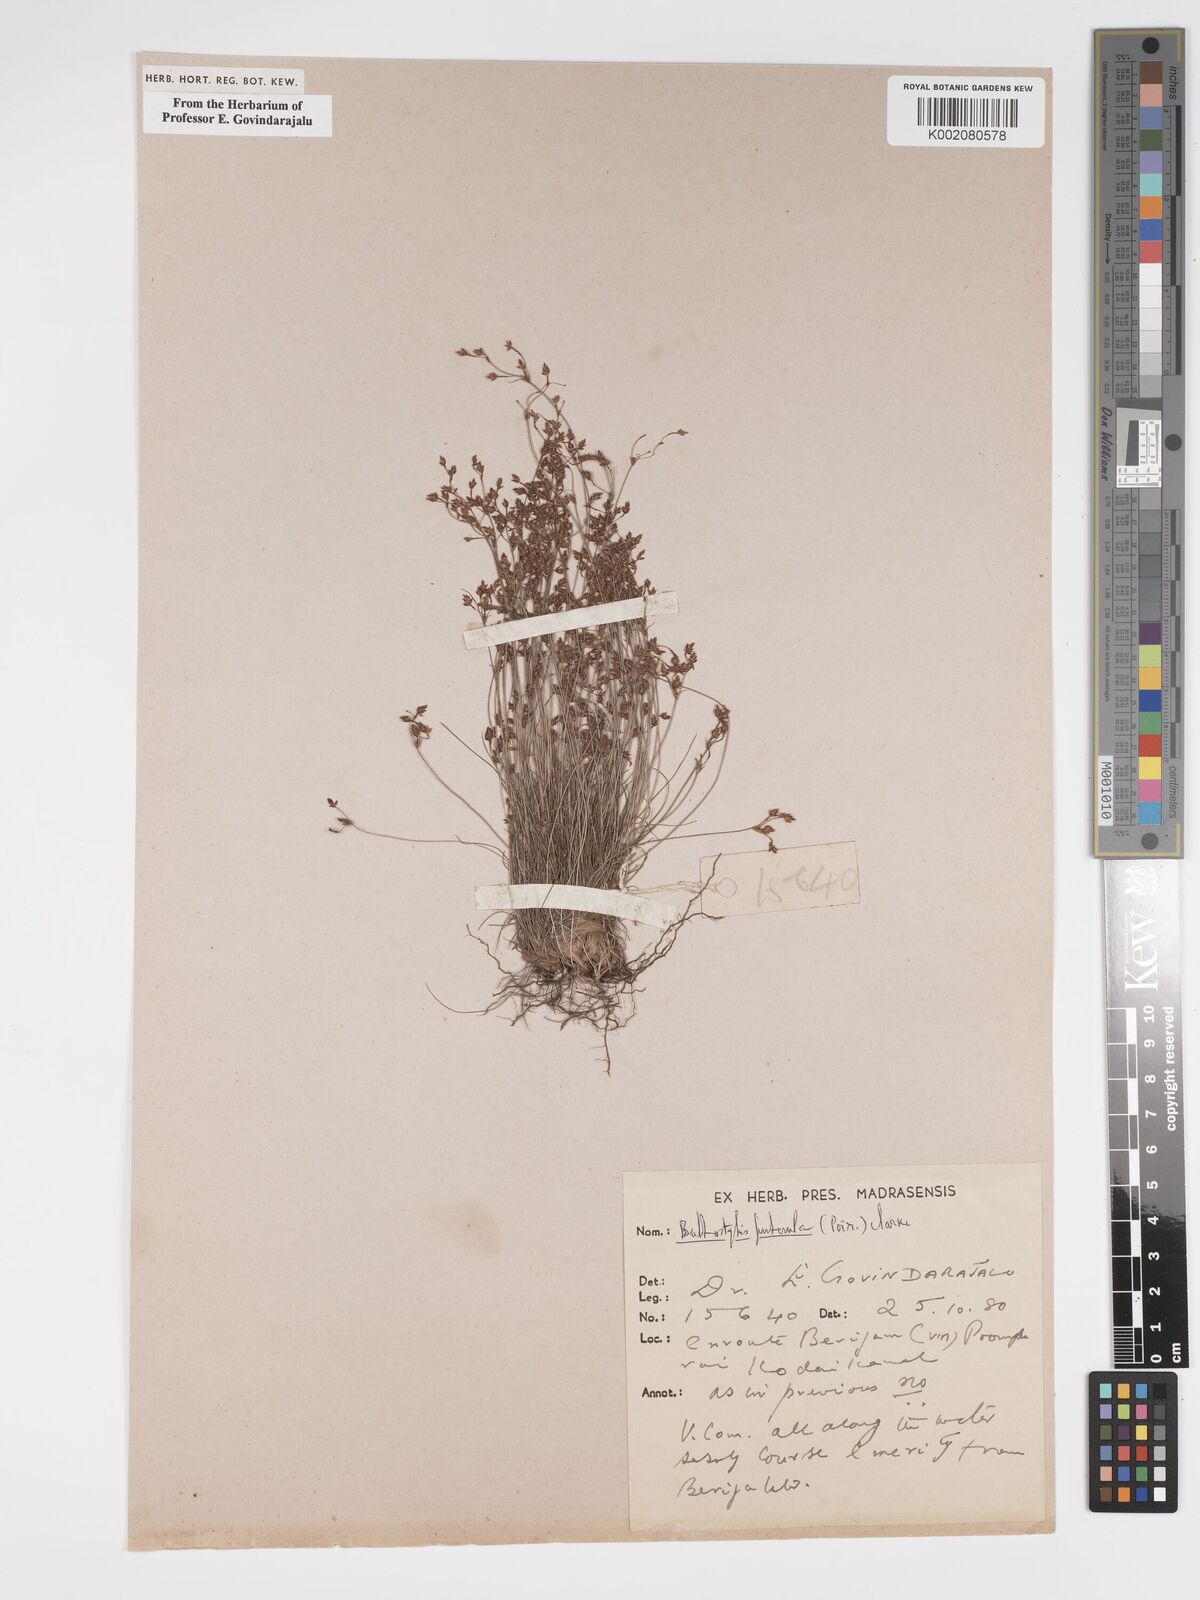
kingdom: Plantae
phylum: Tracheophyta
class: Liliopsida
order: Poales
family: Cyperaceae
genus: Bulbostylis
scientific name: Bulbostylis thouarsii
